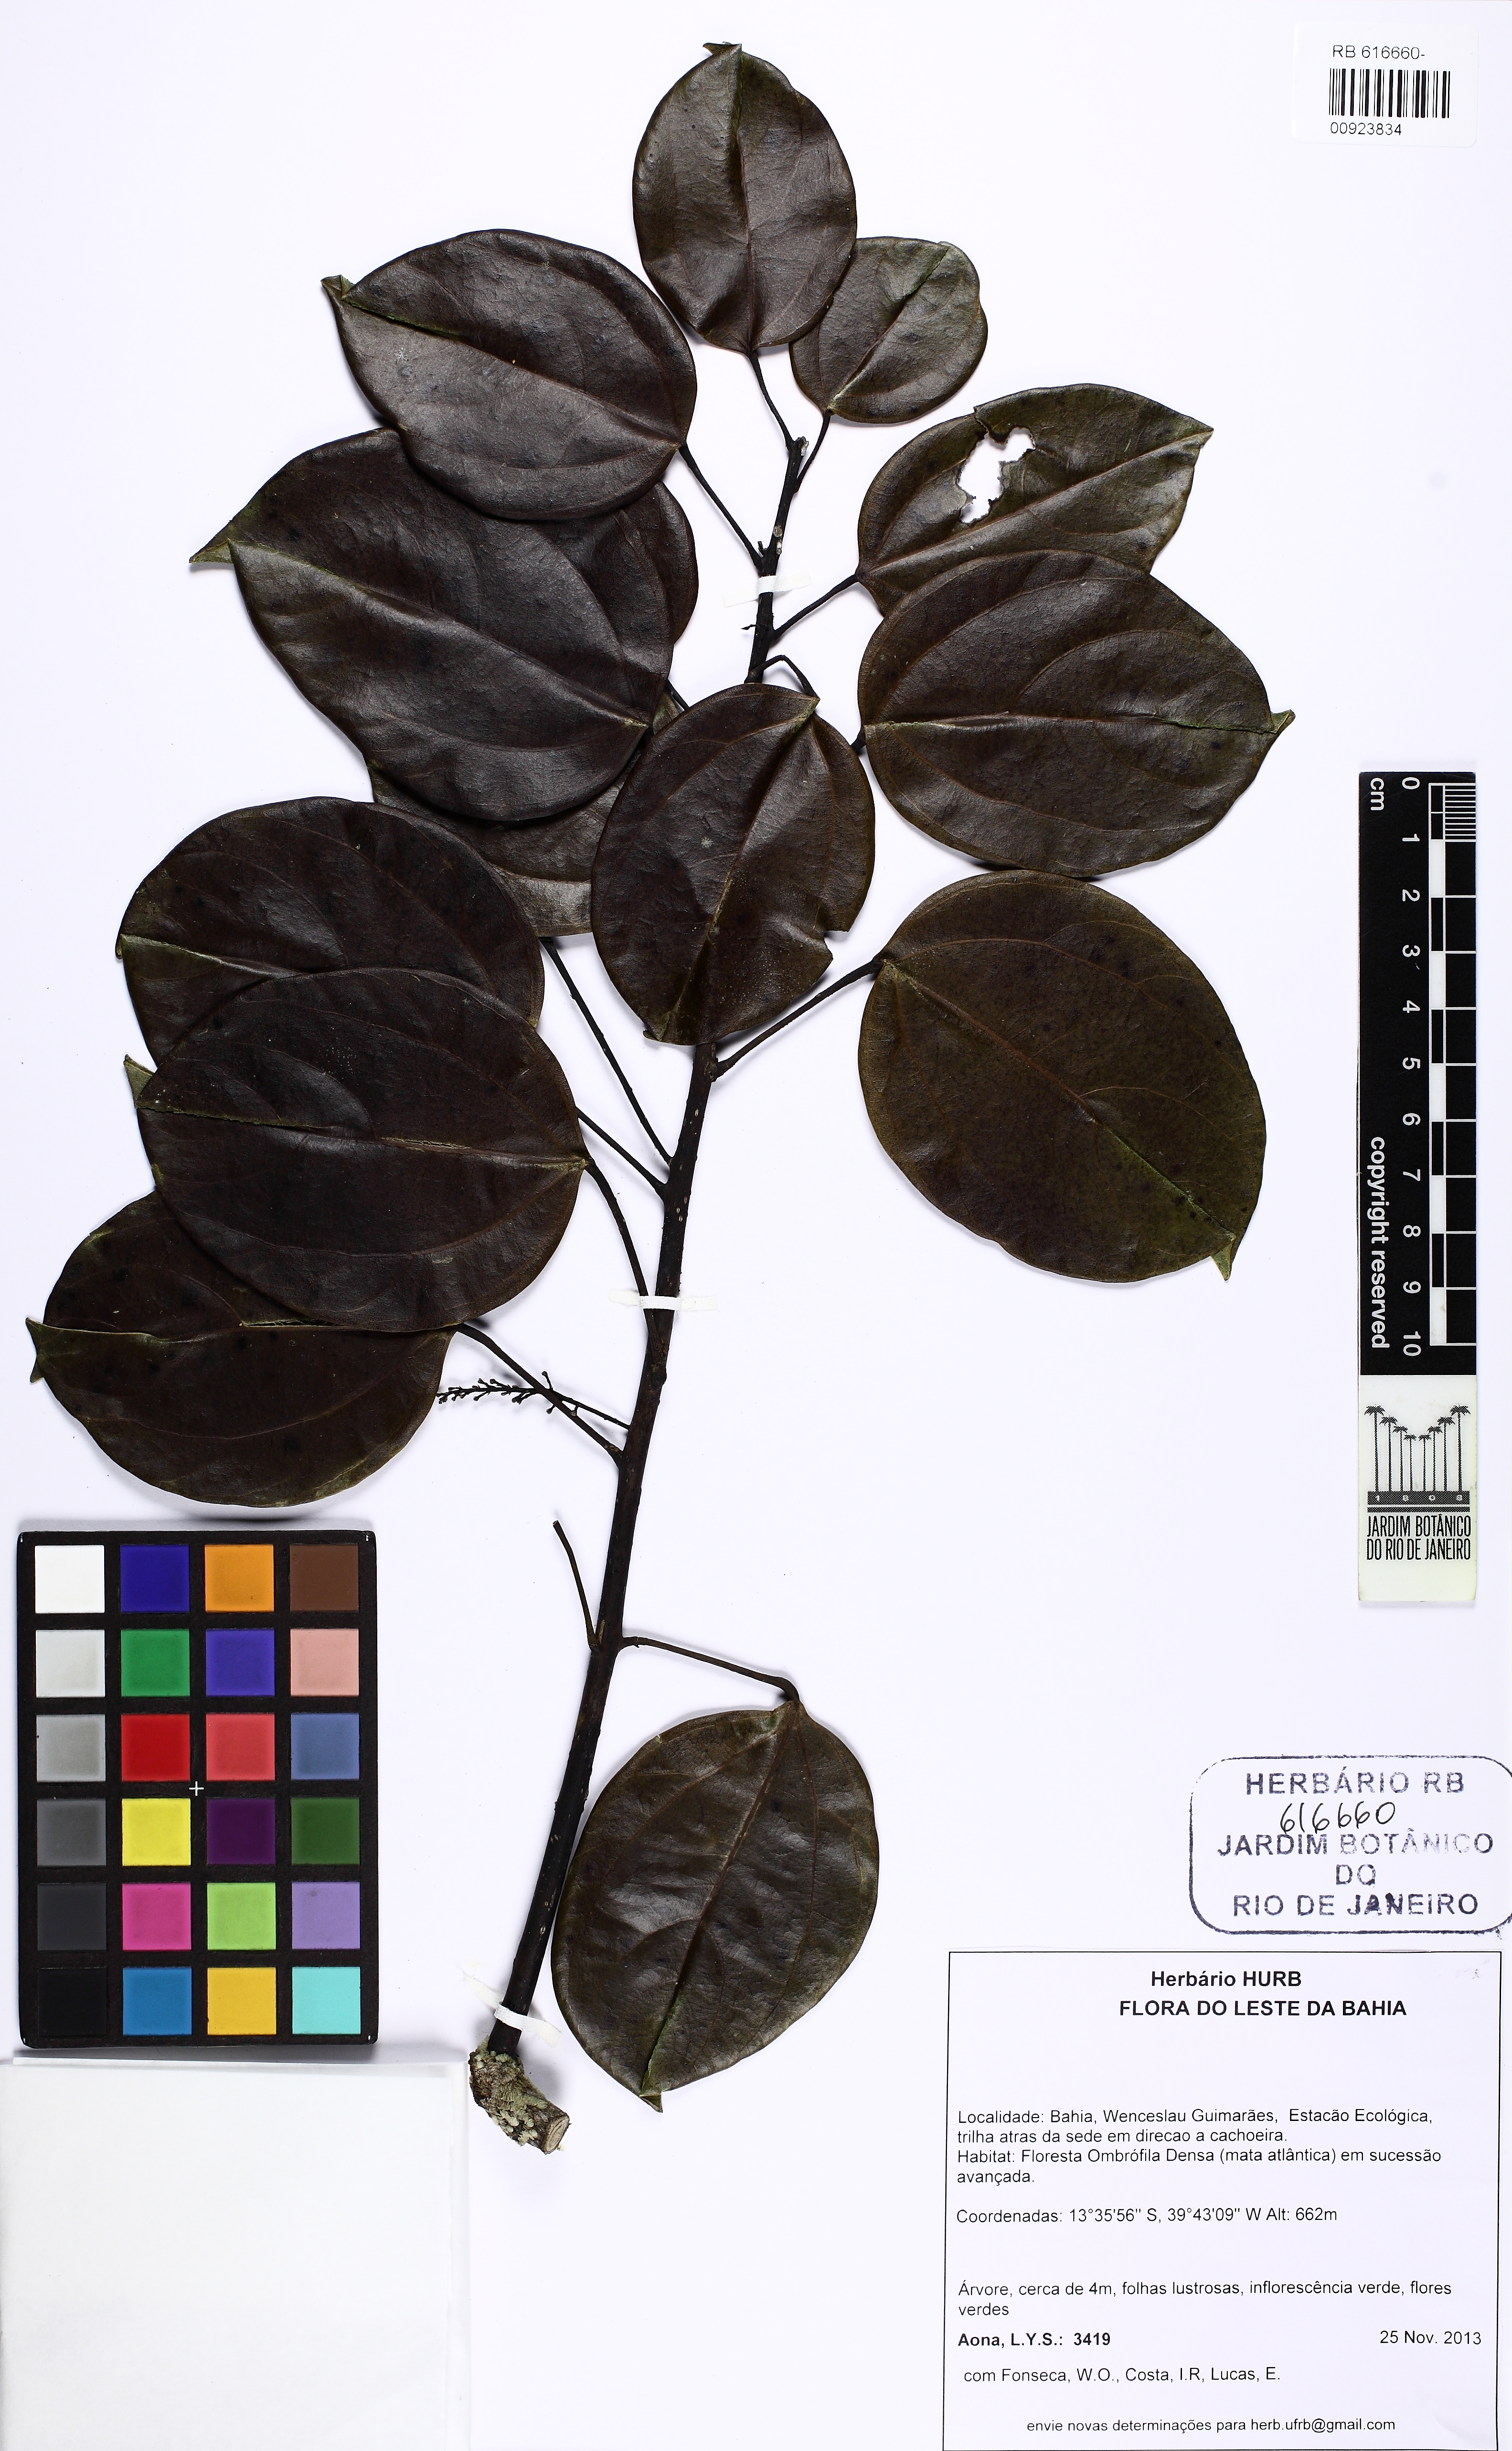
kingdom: Plantae
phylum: Tracheophyta
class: Magnoliopsida
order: Ranunculales
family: Menispermaceae
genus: Abuta
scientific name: Abuta selloana
